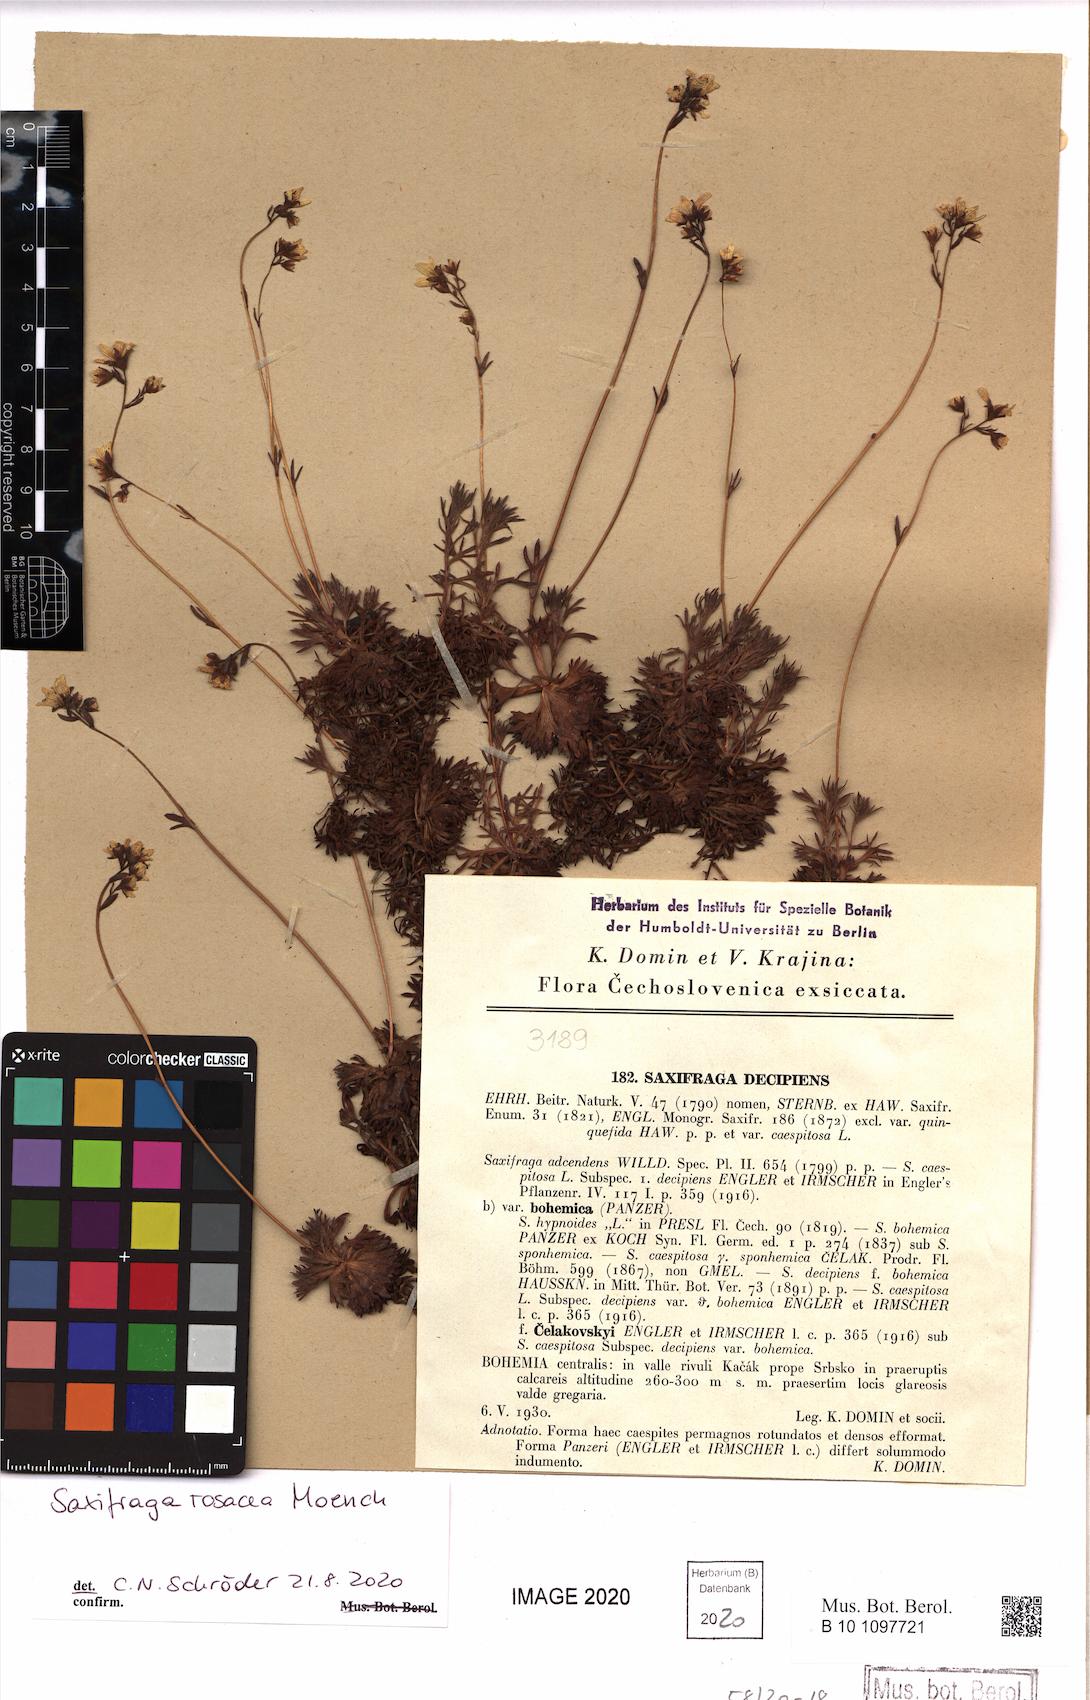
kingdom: Plantae
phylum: Tracheophyta
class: Magnoliopsida
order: Saxifragales
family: Saxifragaceae
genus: Saxifraga
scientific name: Saxifraga rosacea
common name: Irish saxifrage
